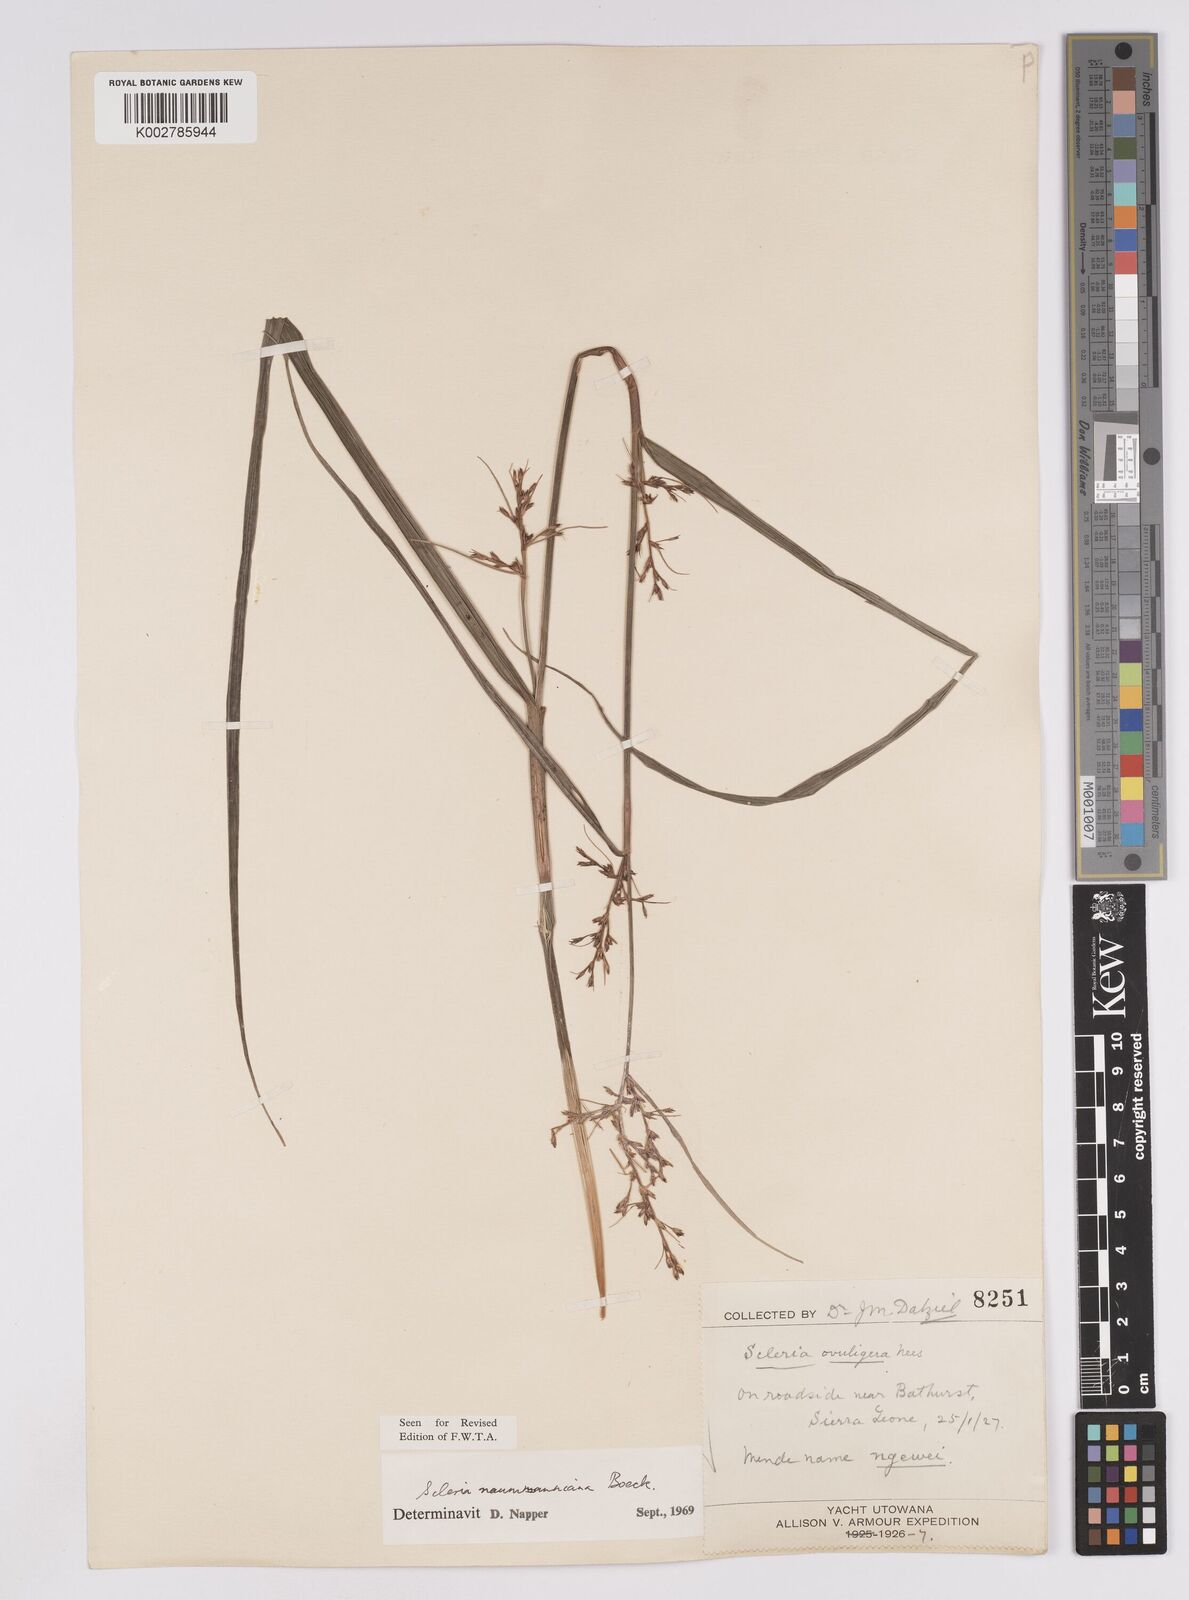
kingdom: Plantae
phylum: Tracheophyta
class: Liliopsida
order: Poales
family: Cyperaceae
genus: Scleria
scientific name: Scleria naumanniana
